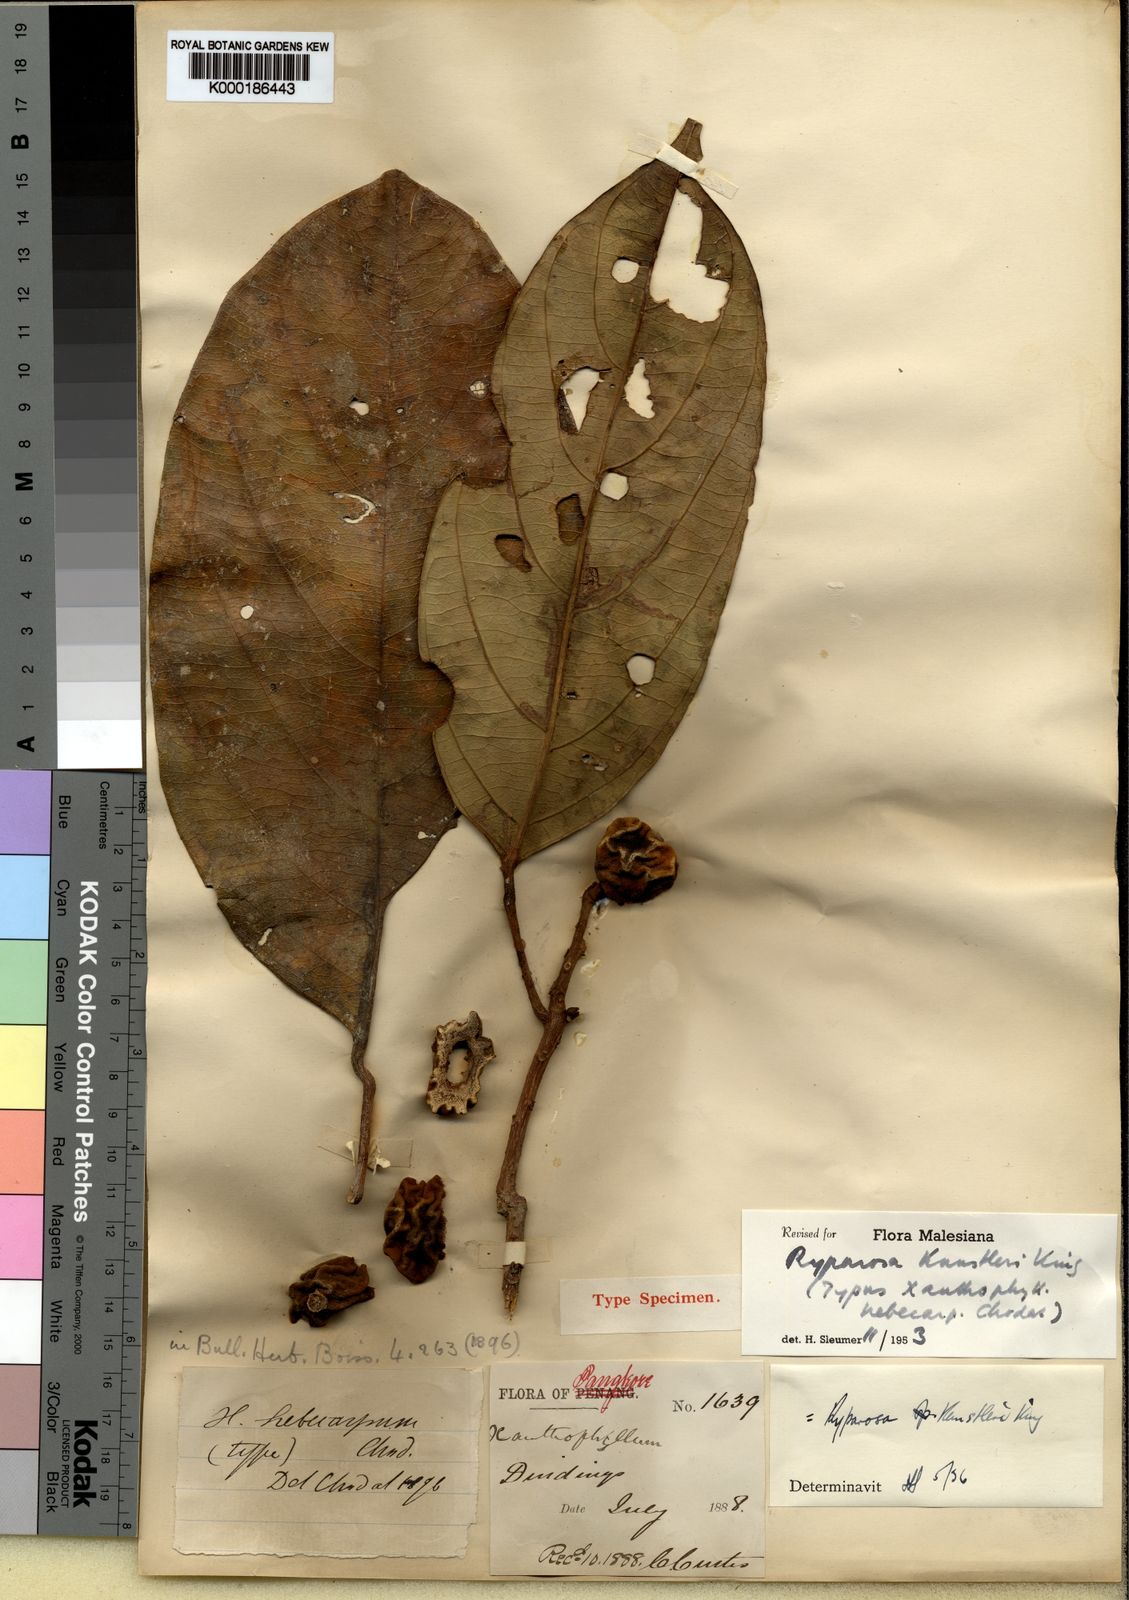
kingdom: Plantae
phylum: Tracheophyta
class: Magnoliopsida
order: Malpighiales
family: Achariaceae
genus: Ryparosa
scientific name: Ryparosa kunstleri
